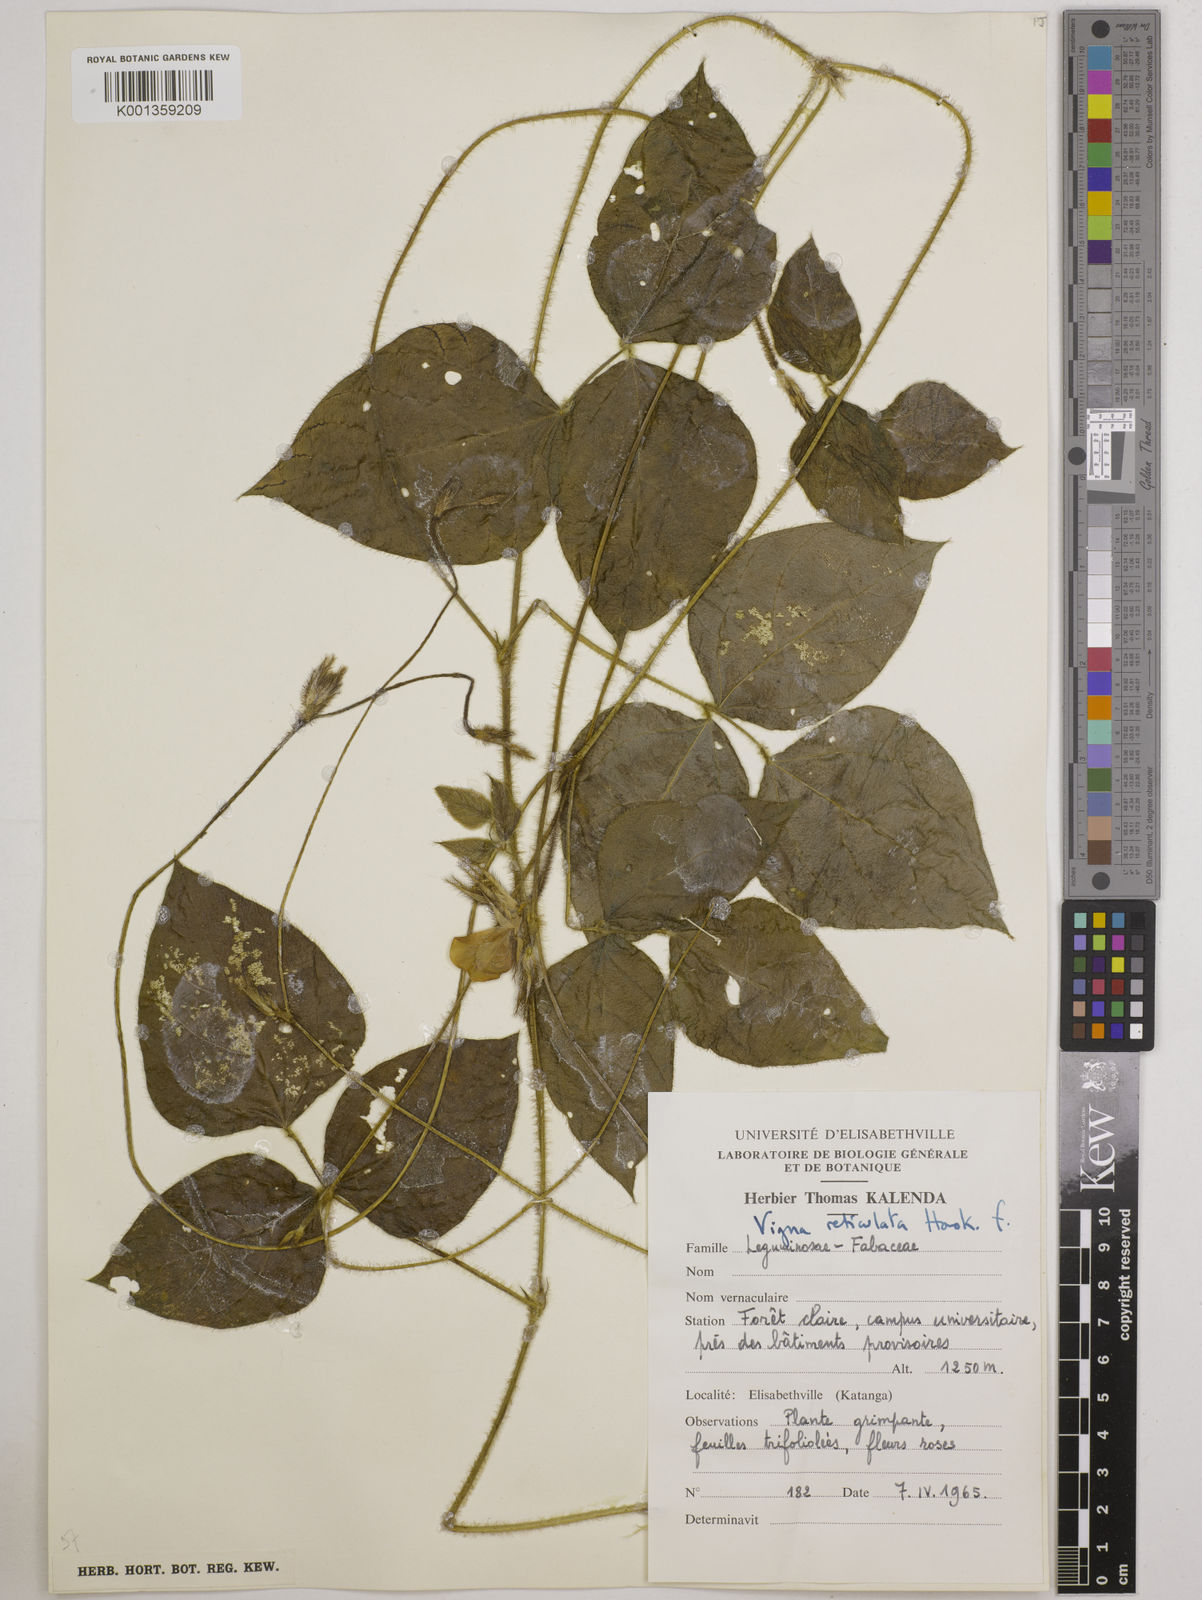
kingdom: Plantae
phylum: Tracheophyta
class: Magnoliopsida
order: Fabales
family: Fabaceae
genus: Vigna
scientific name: Vigna reticulata
